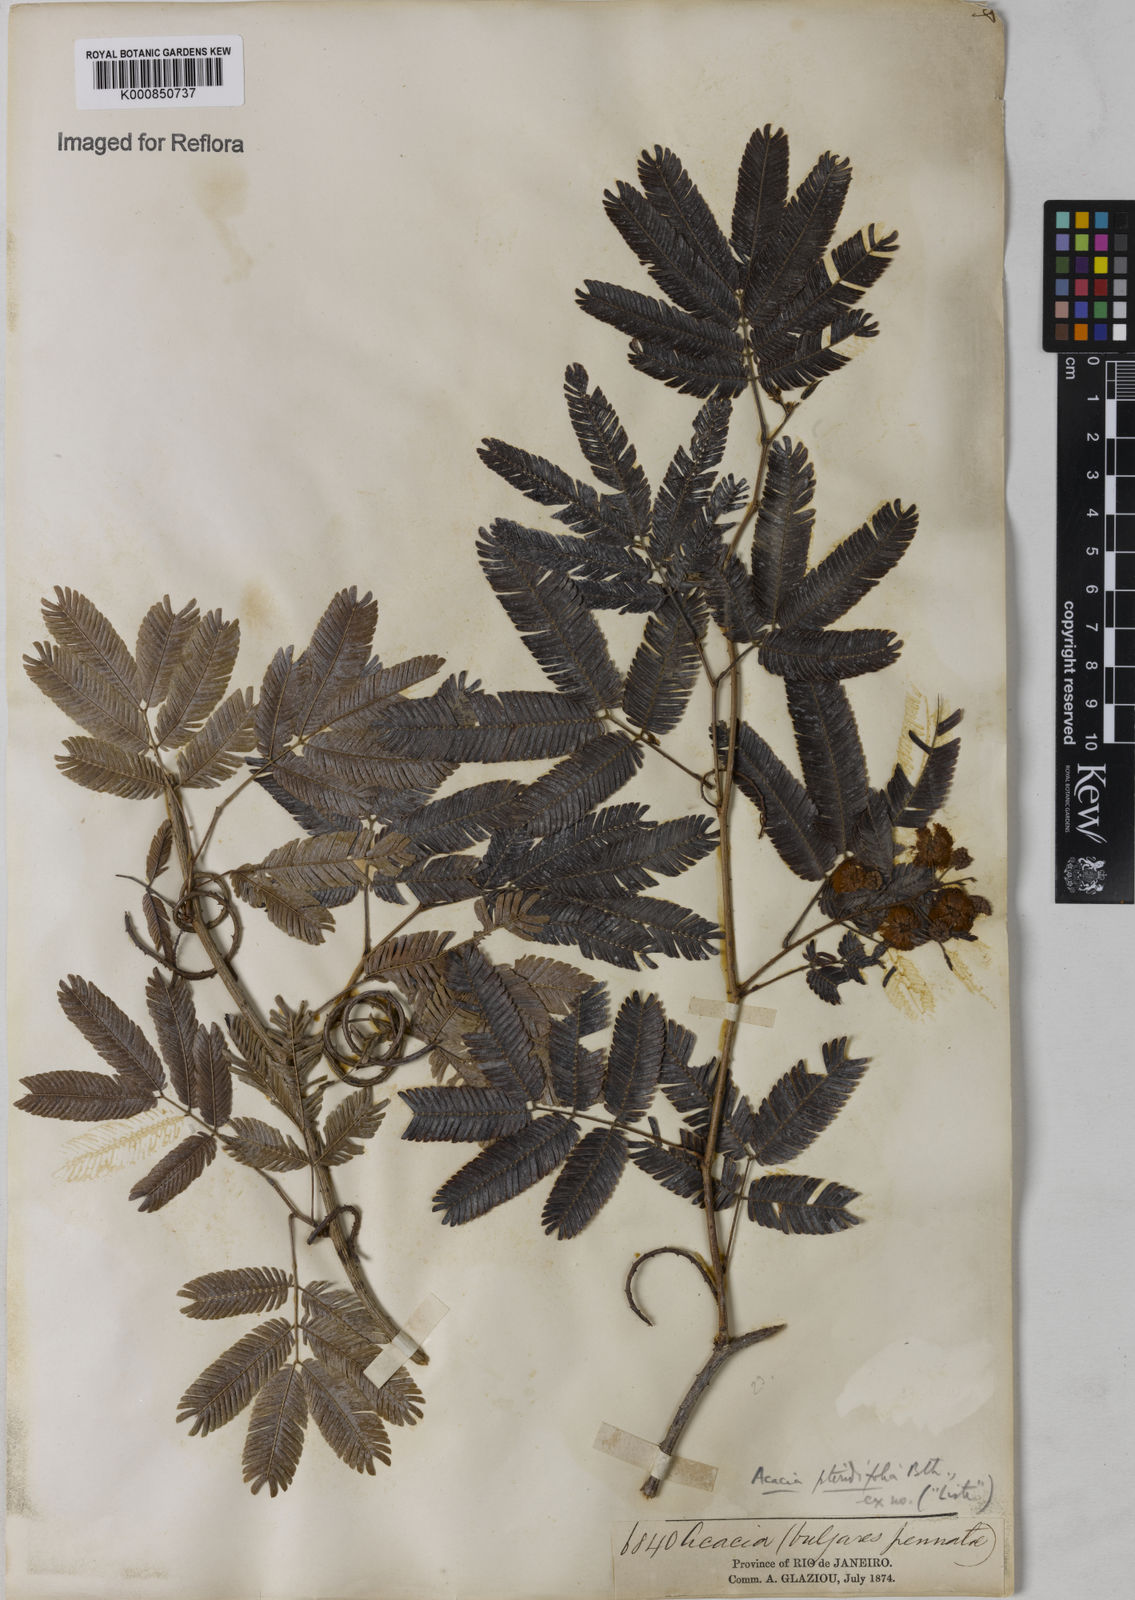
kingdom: Plantae
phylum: Tracheophyta
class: Magnoliopsida
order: Fabales
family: Fabaceae
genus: Senegalia
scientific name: Senegalia pteridifolia
